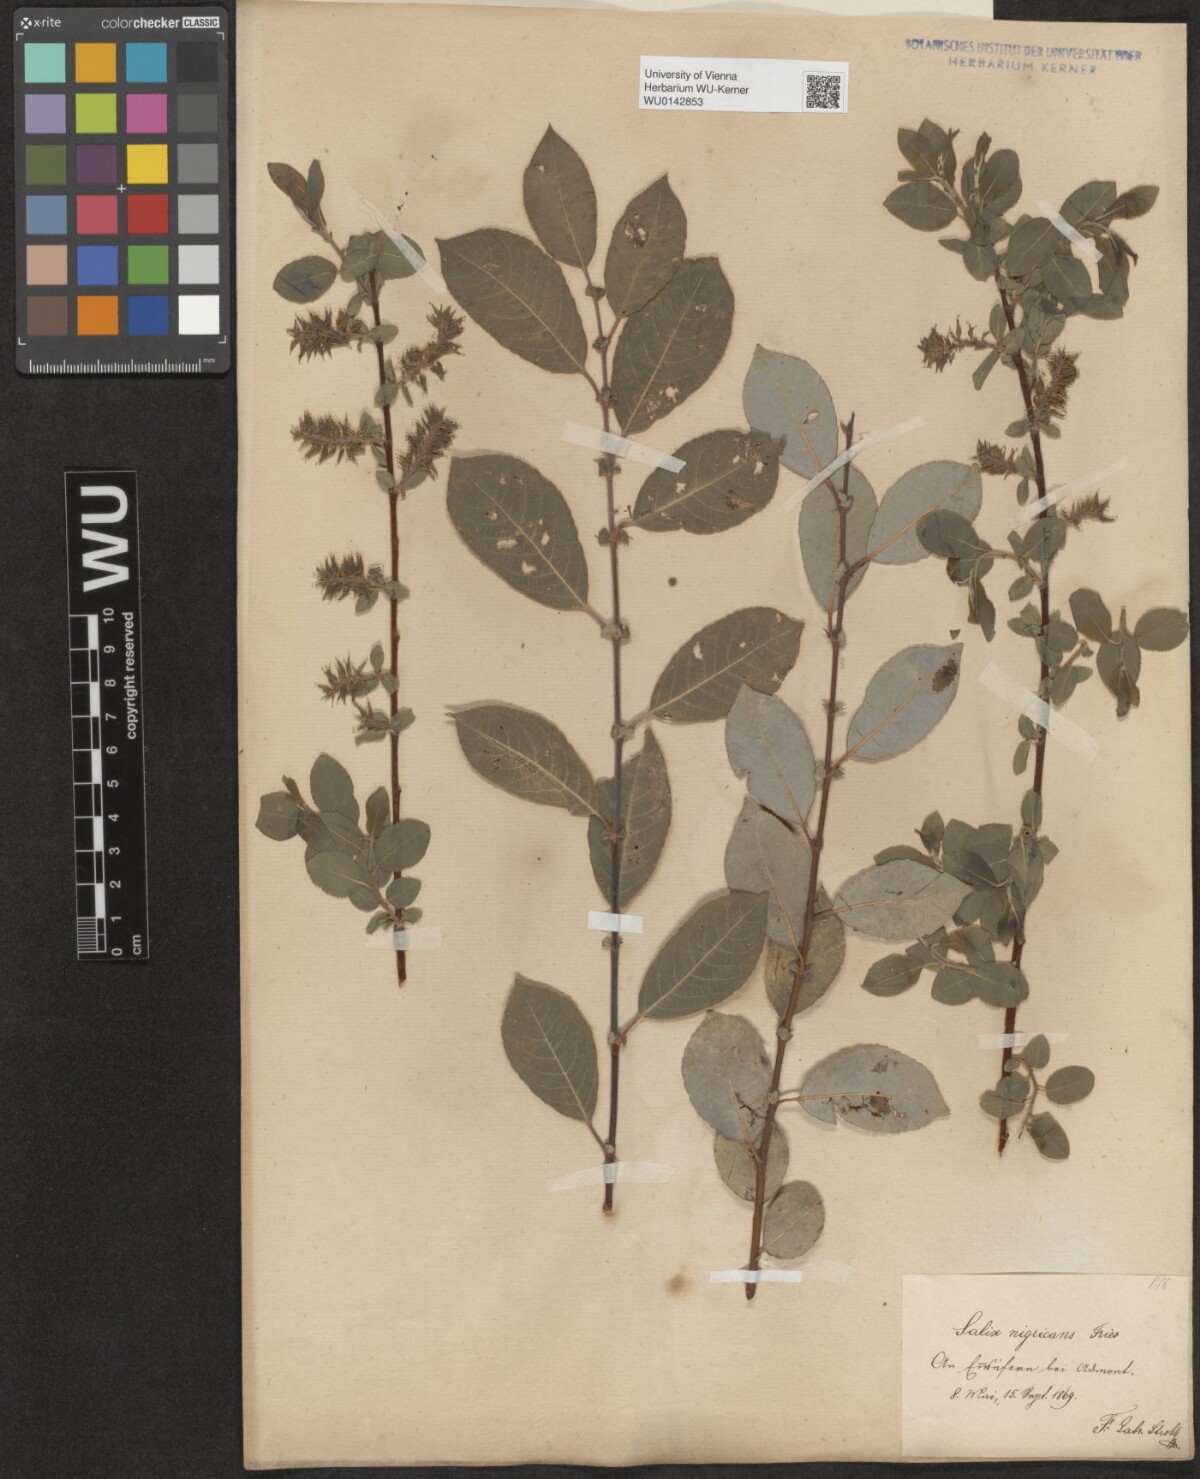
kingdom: Plantae
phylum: Tracheophyta
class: Magnoliopsida
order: Malpighiales
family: Salicaceae
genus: Salix
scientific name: Salix myrsinifolia
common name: Dark-leaved willow
